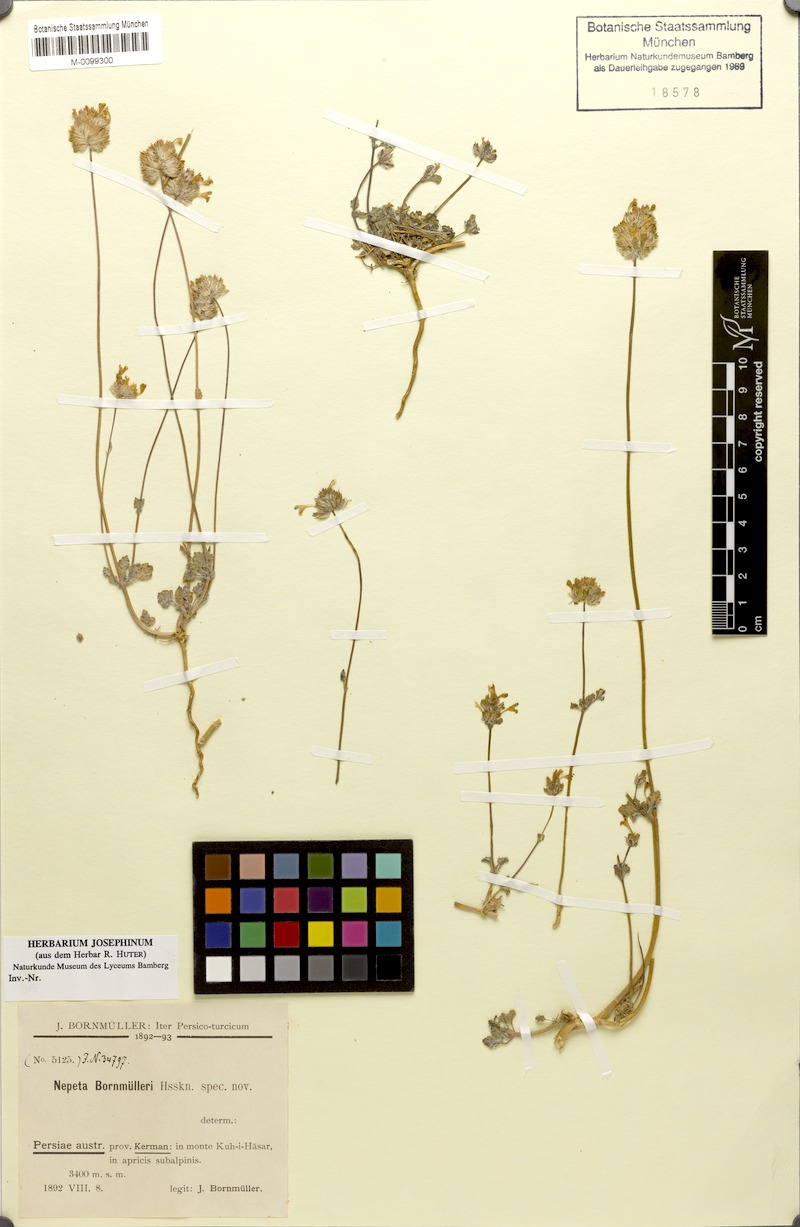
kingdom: Plantae
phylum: Tracheophyta
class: Magnoliopsida
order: Lamiales
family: Lamiaceae
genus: Nepeta
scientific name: Nepeta bornmuelleri
